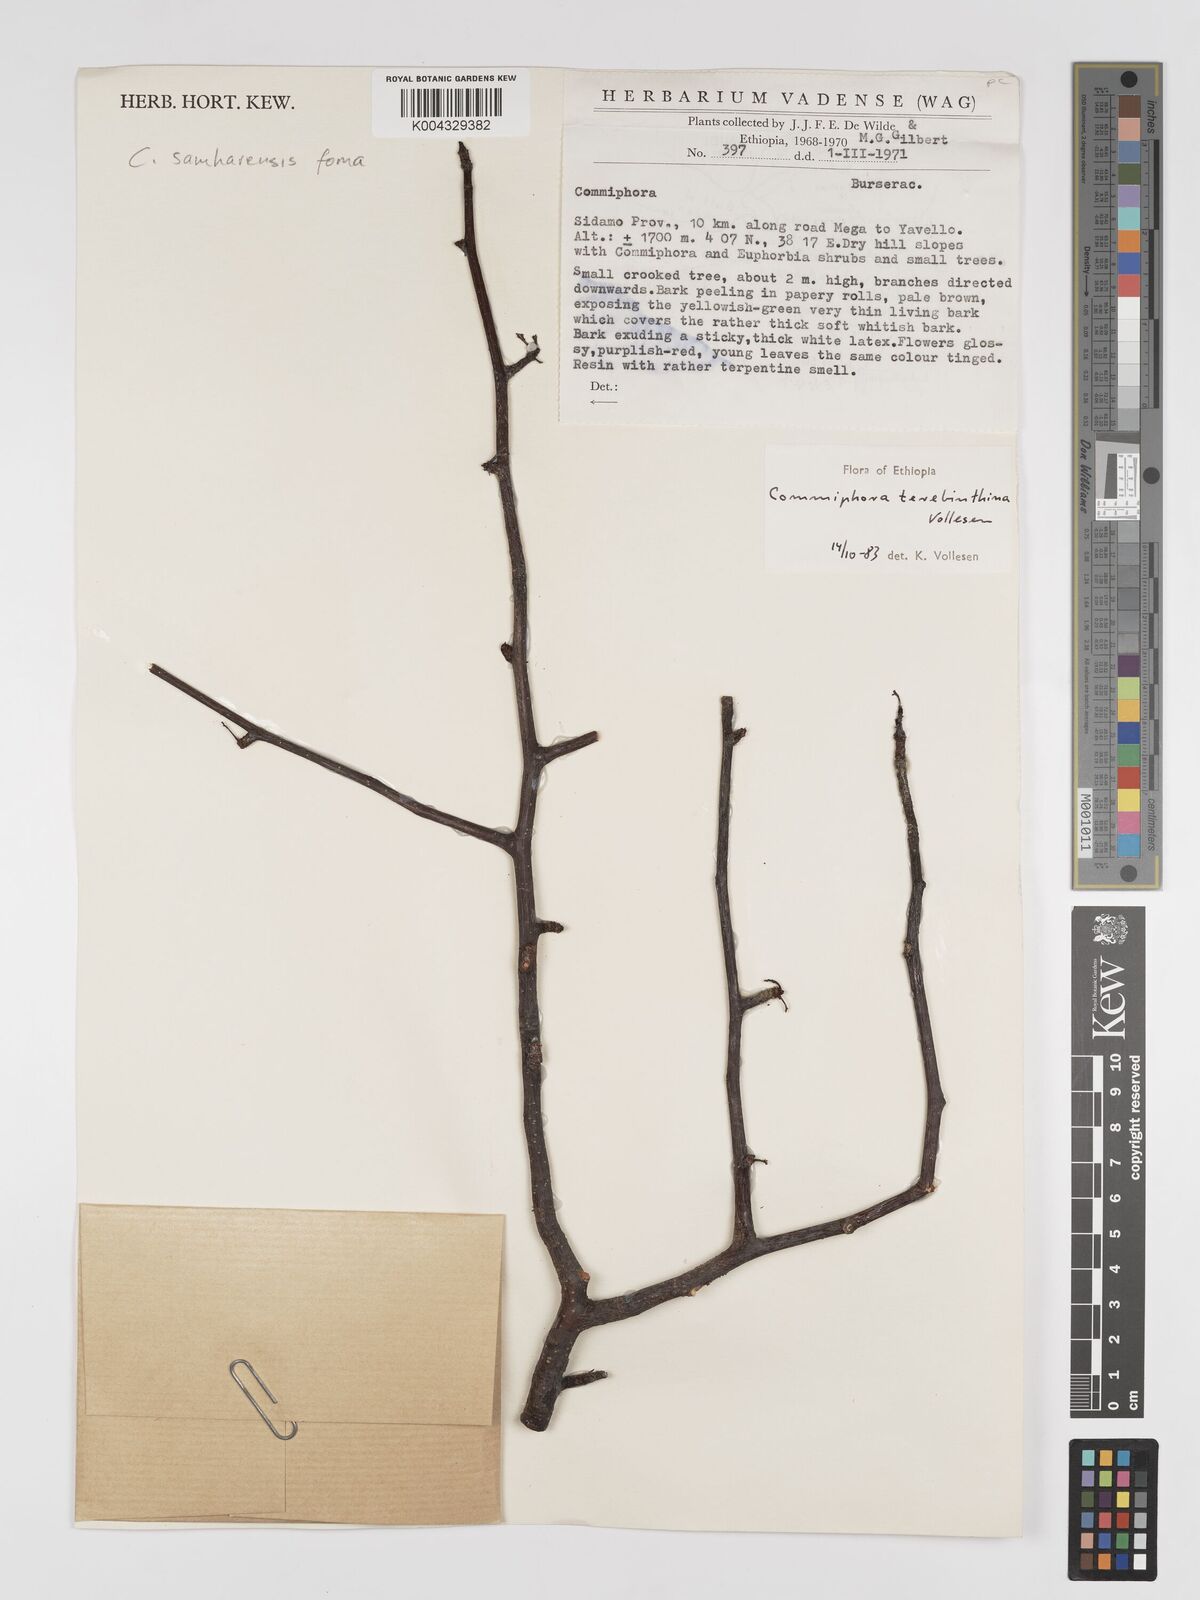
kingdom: Plantae
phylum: Tracheophyta
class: Magnoliopsida
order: Sapindales
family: Burseraceae
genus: Commiphora
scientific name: Commiphora samharensis
